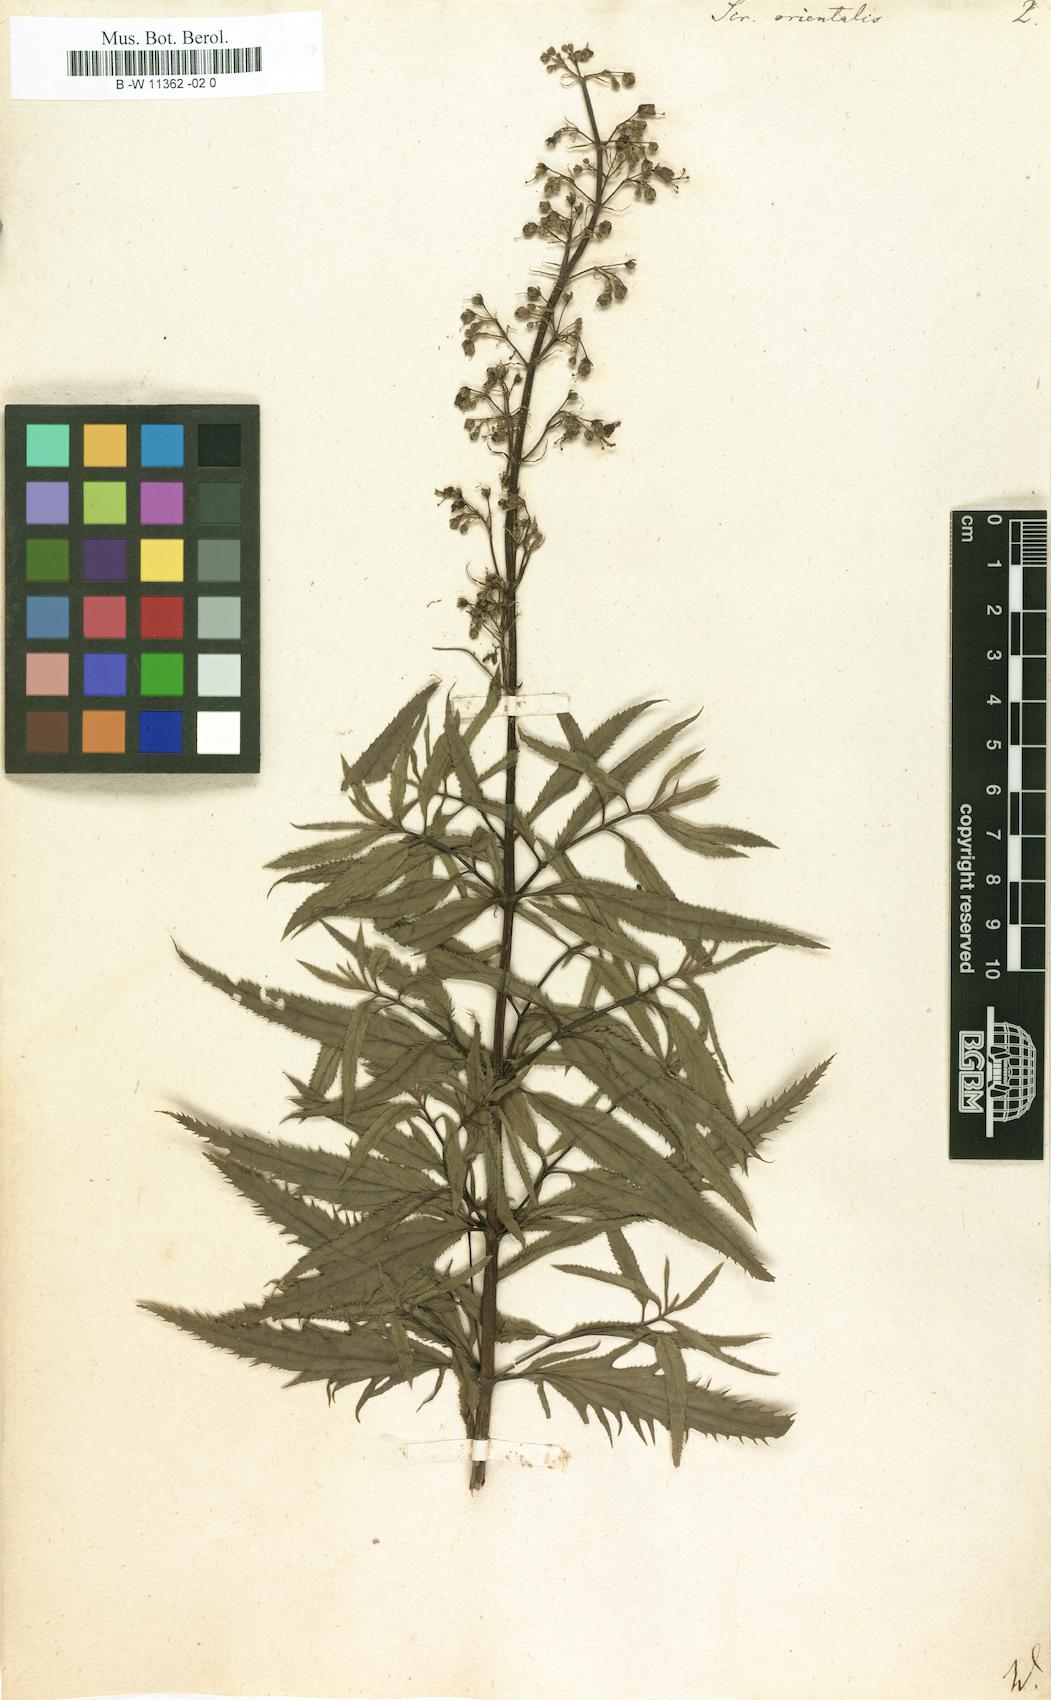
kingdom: Plantae
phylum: Tracheophyta
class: Magnoliopsida
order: Lamiales
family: Scrophulariaceae
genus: Scrophularia
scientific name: Scrophularia orientalis
